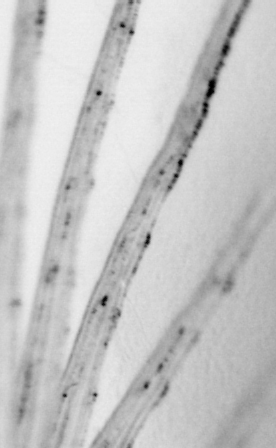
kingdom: Animalia
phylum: Chordata
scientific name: Chordata
